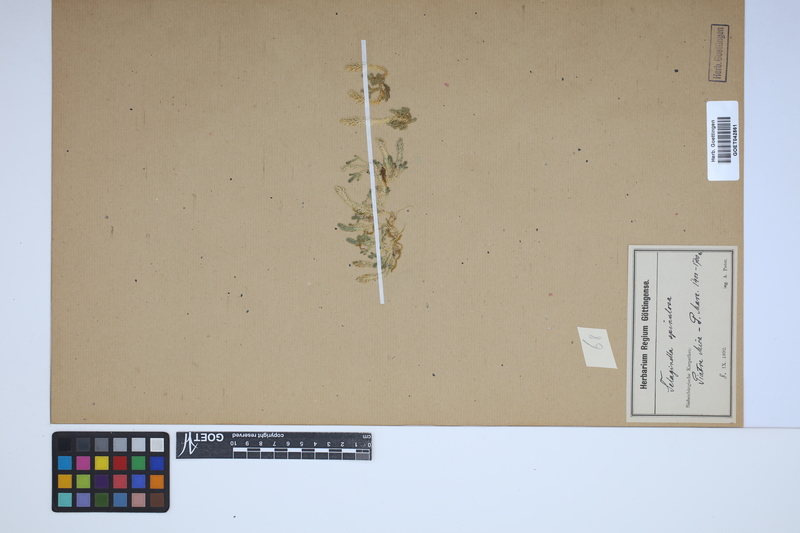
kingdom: Plantae
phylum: Tracheophyta
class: Lycopodiopsida
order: Selaginellales
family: Selaginellaceae
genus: Selaginella
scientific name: Selaginella selaginoides
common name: Prickly mountain-moss
